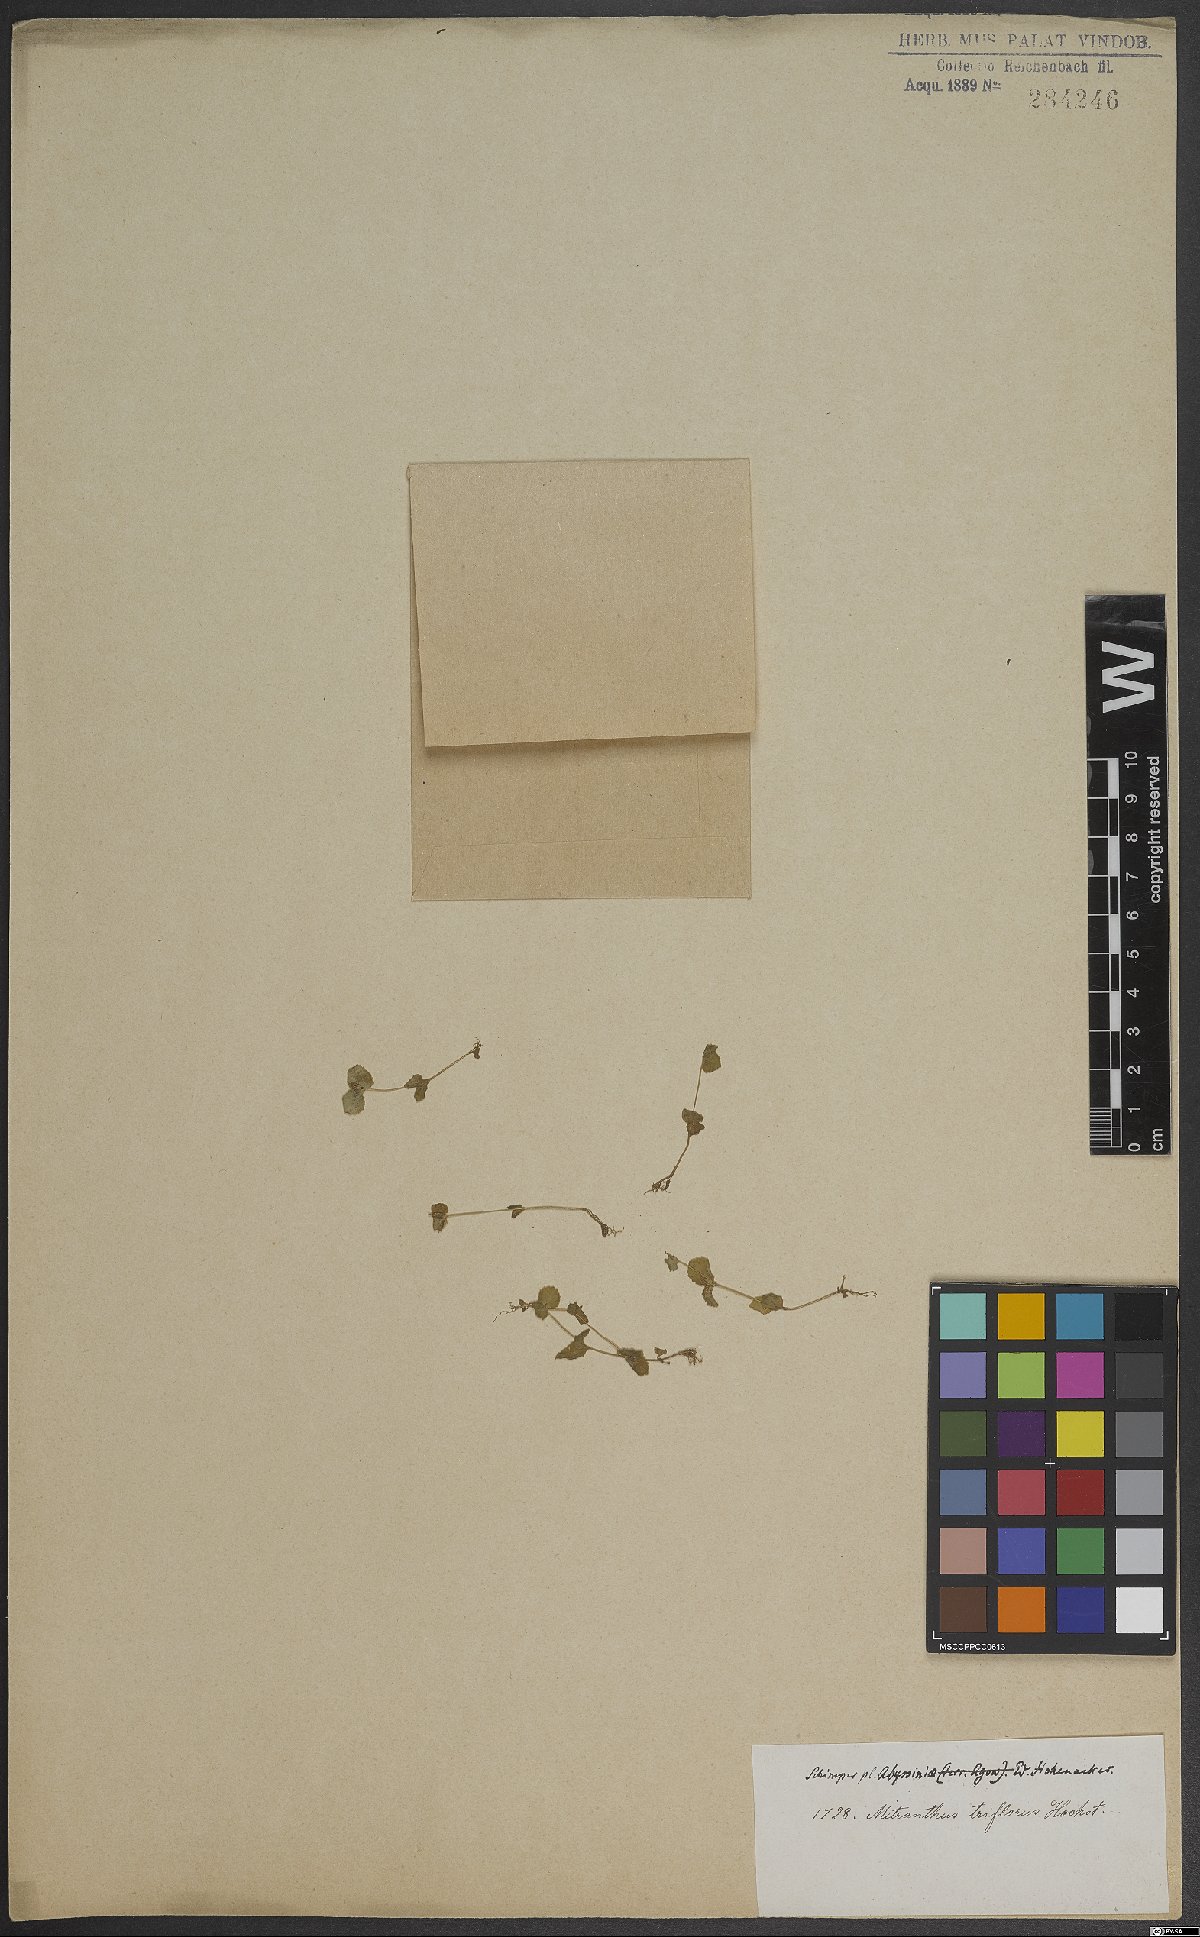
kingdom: Plantae
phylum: Tracheophyta
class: Magnoliopsida
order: Lamiales
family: Scrophulariaceae
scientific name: Scrophulariaceae
